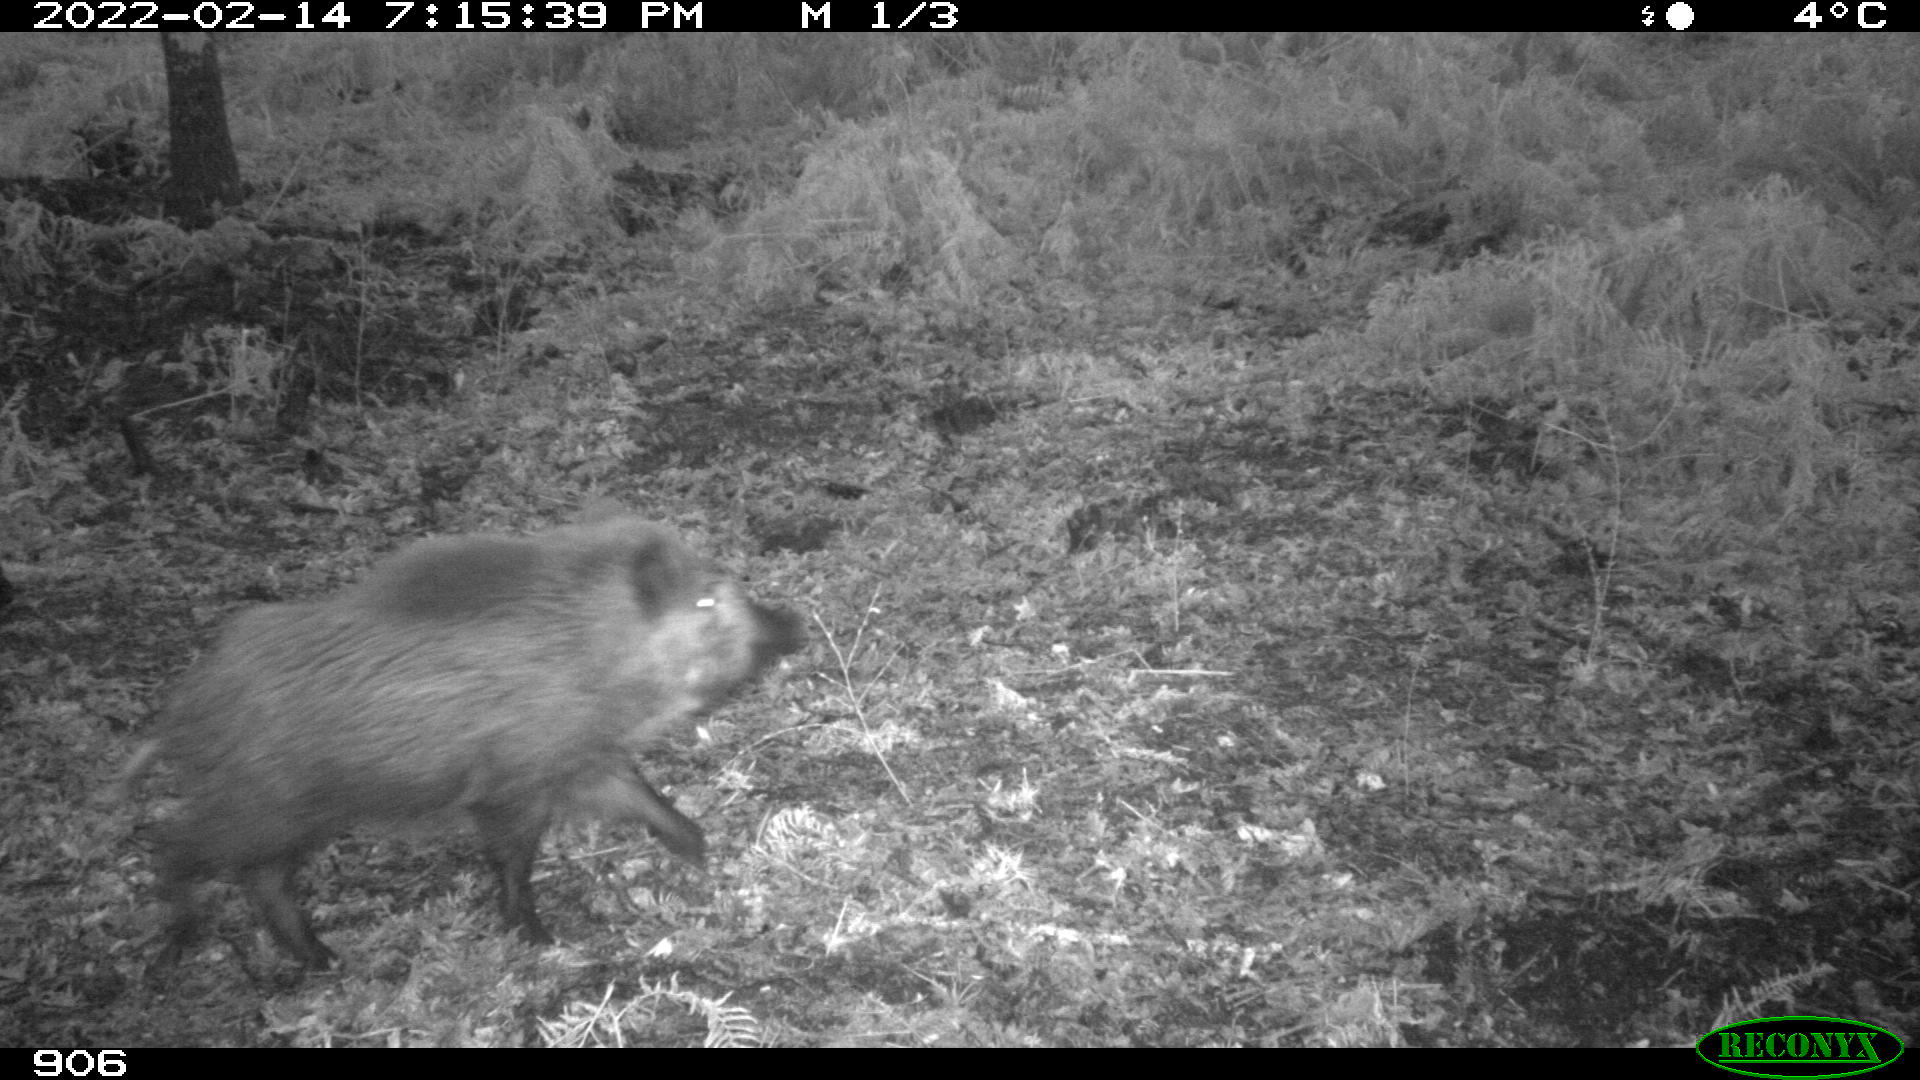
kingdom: Animalia
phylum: Chordata
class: Mammalia
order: Artiodactyla
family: Suidae
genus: Sus
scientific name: Sus scrofa
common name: Wild boar
